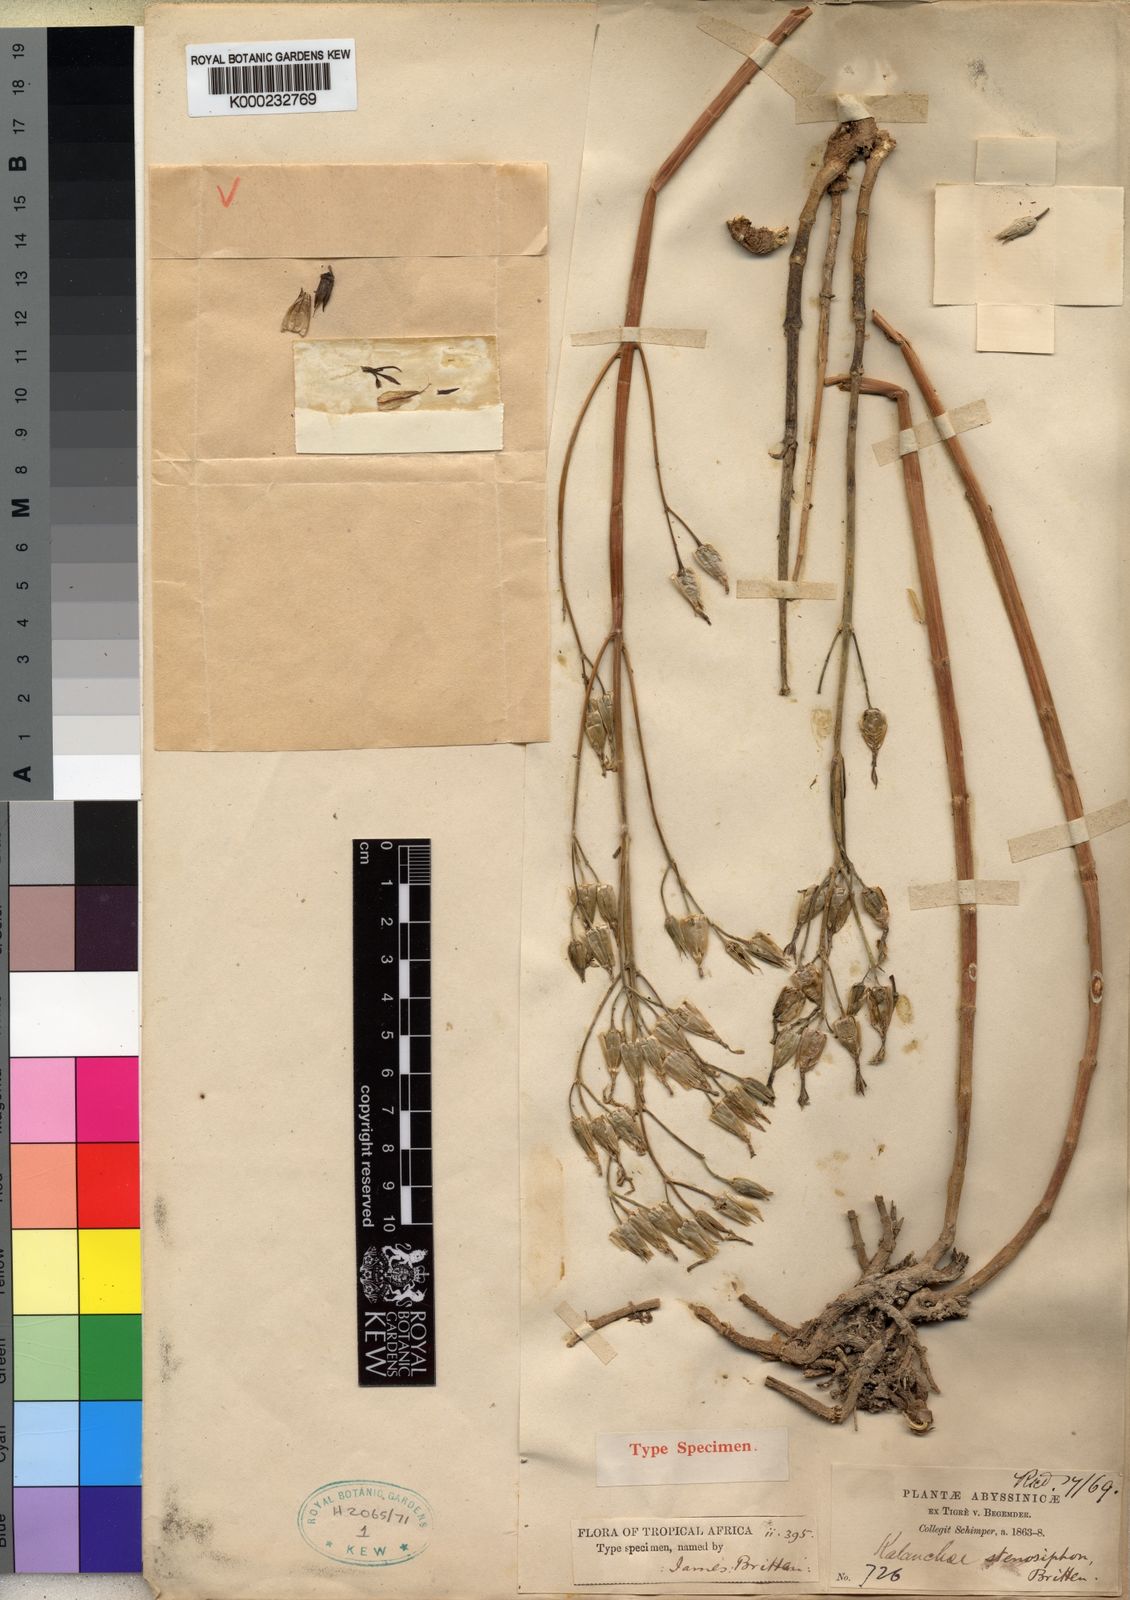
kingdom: Plantae
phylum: Tracheophyta
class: Magnoliopsida
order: Saxifragales
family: Crassulaceae
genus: Kalanchoe
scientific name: Kalanchoe stenosiphon
